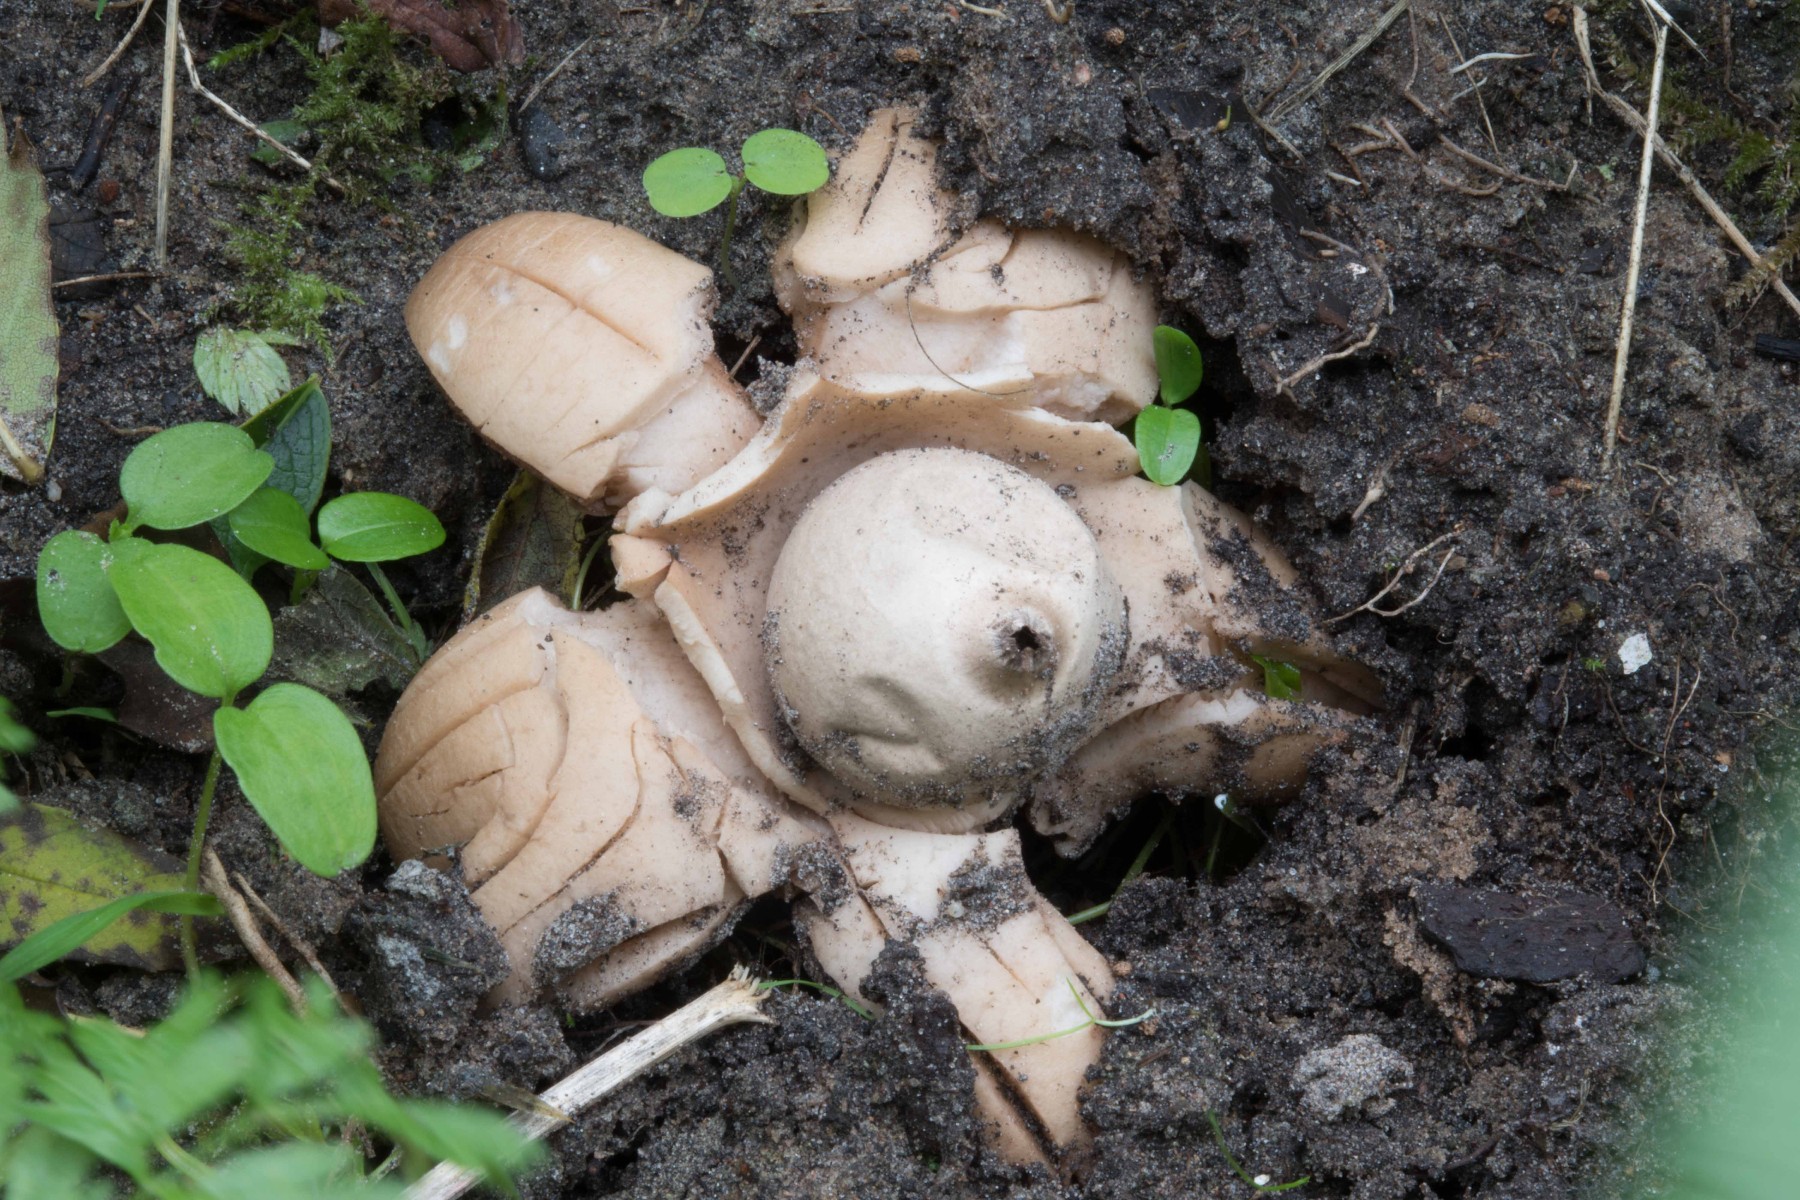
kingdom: Fungi
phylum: Basidiomycota
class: Agaricomycetes
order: Geastrales
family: Geastraceae
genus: Geastrum
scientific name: Geastrum michelianum
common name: kødet stjernebold
